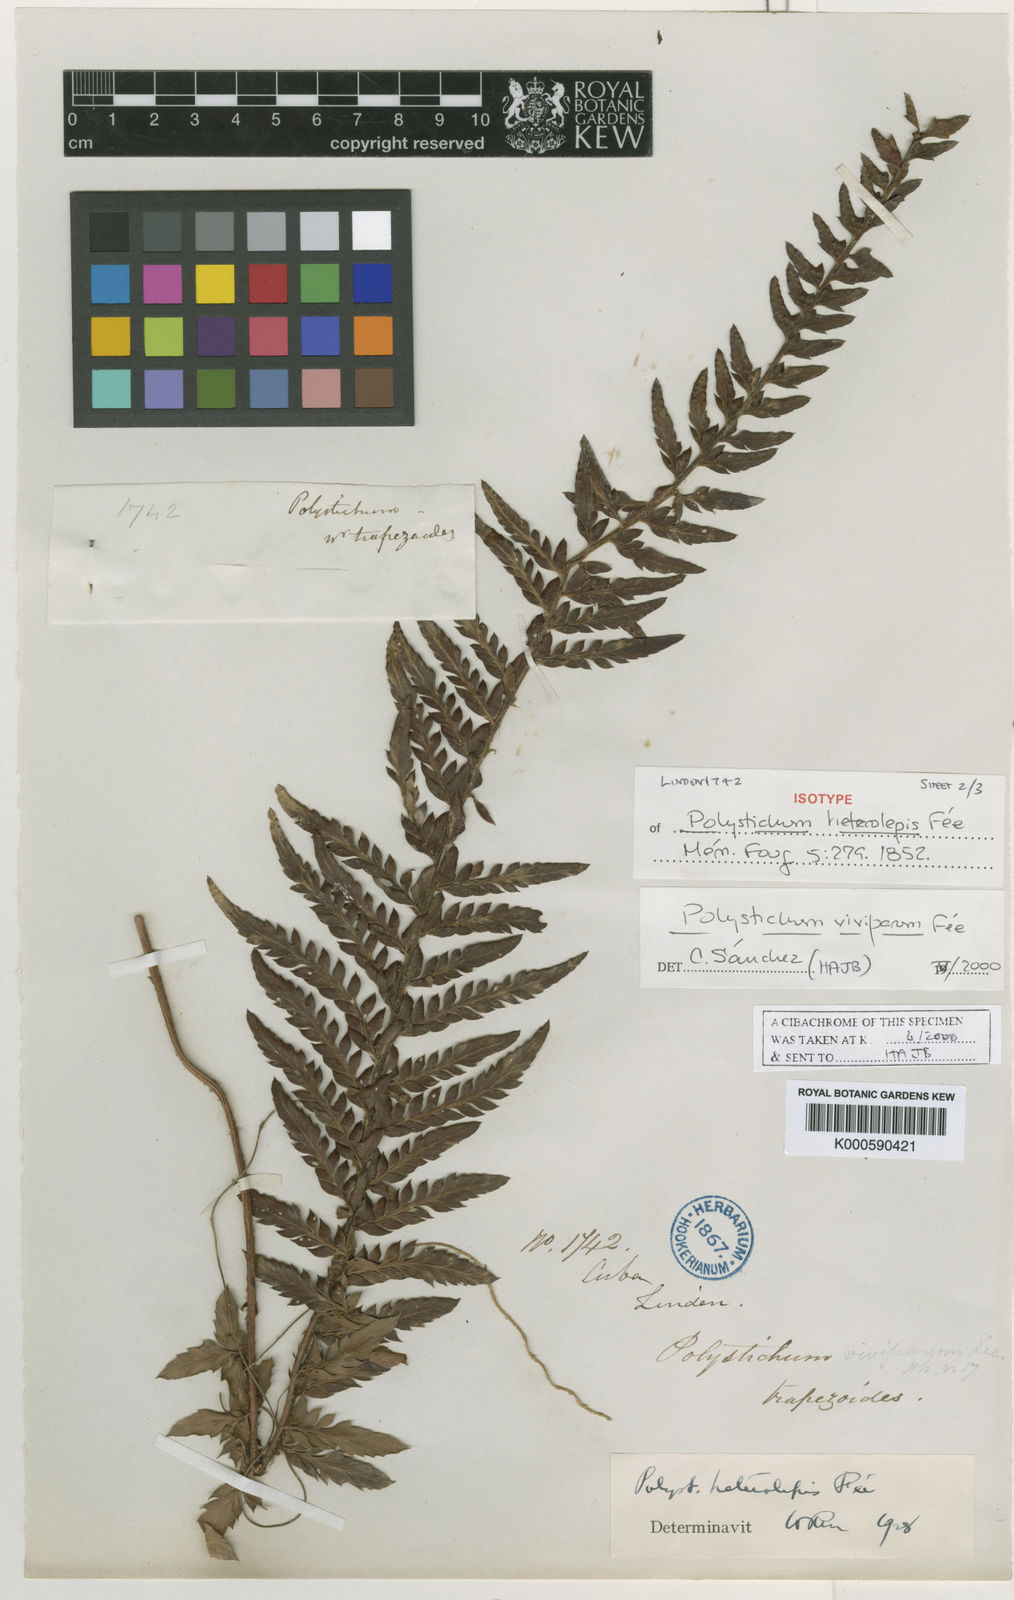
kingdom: Plantae
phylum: Tracheophyta
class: Polypodiopsida
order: Polypodiales
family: Dryopteridaceae
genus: Polystichum
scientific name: Polystichum trapezoides
